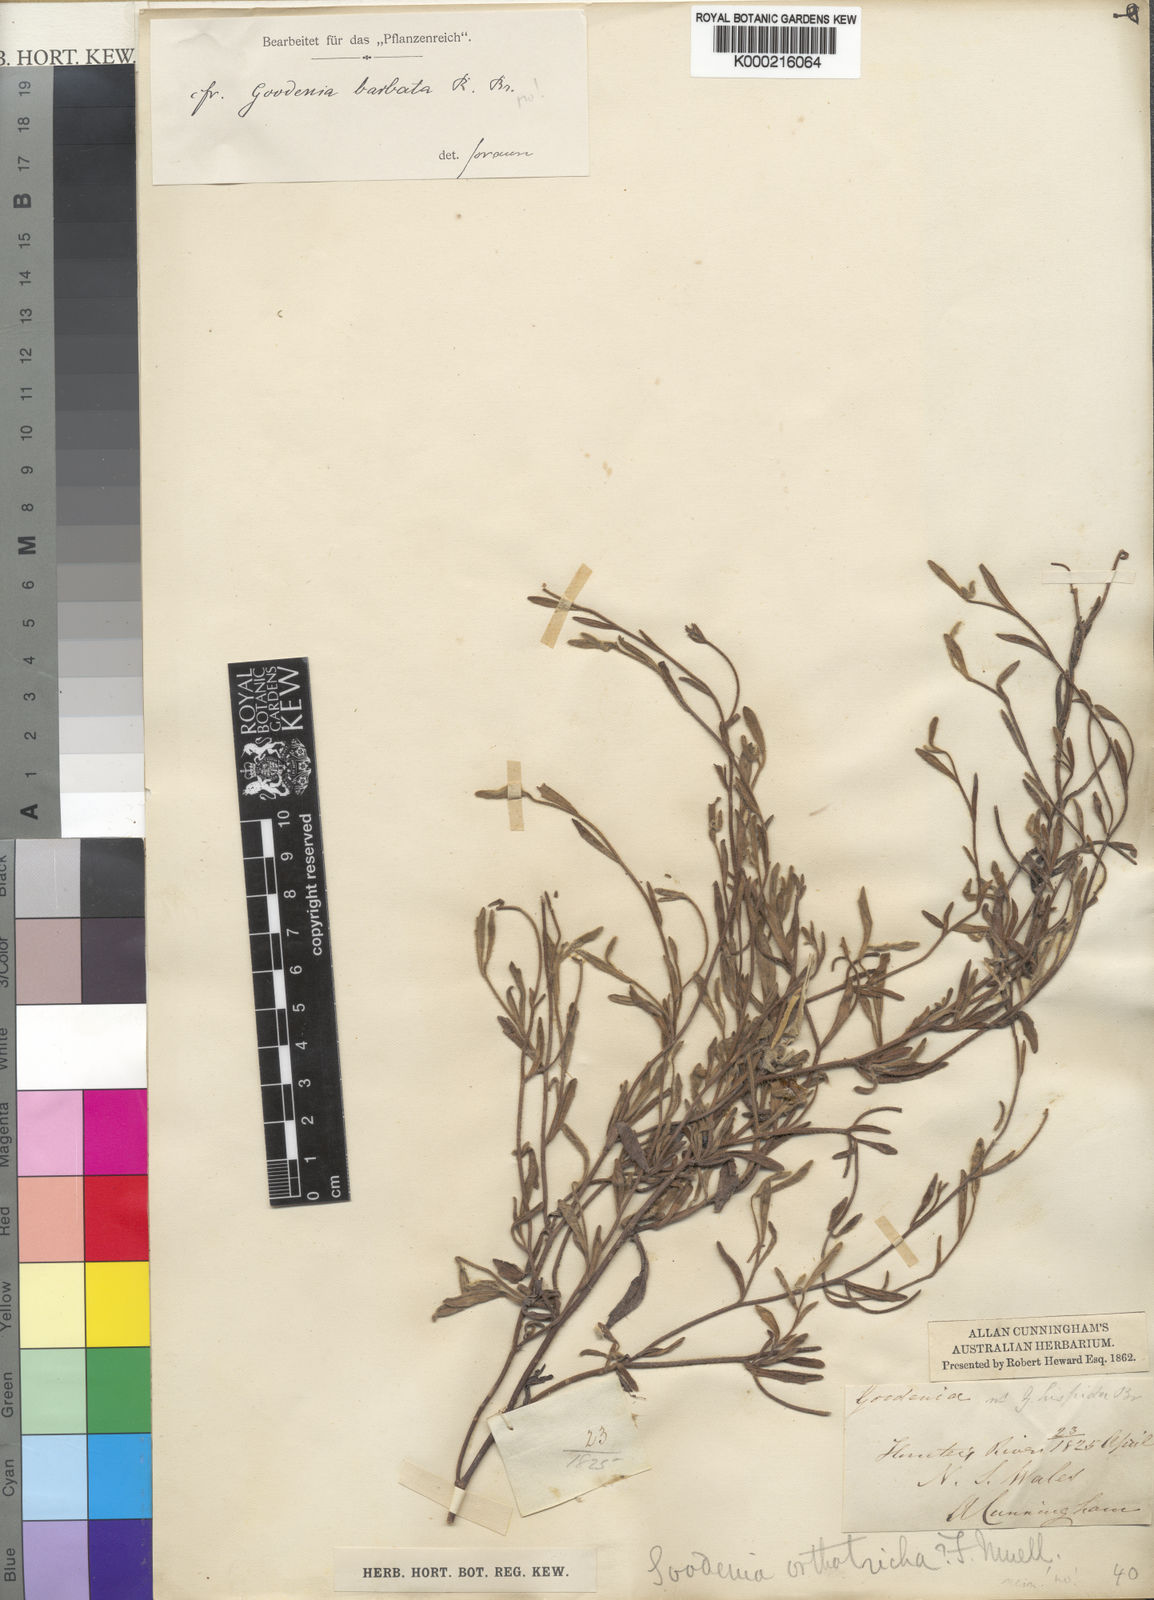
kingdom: Plantae
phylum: Tracheophyta
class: Magnoliopsida
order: Asterales
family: Goodeniaceae
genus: Goodenia
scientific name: Goodenia barbata
